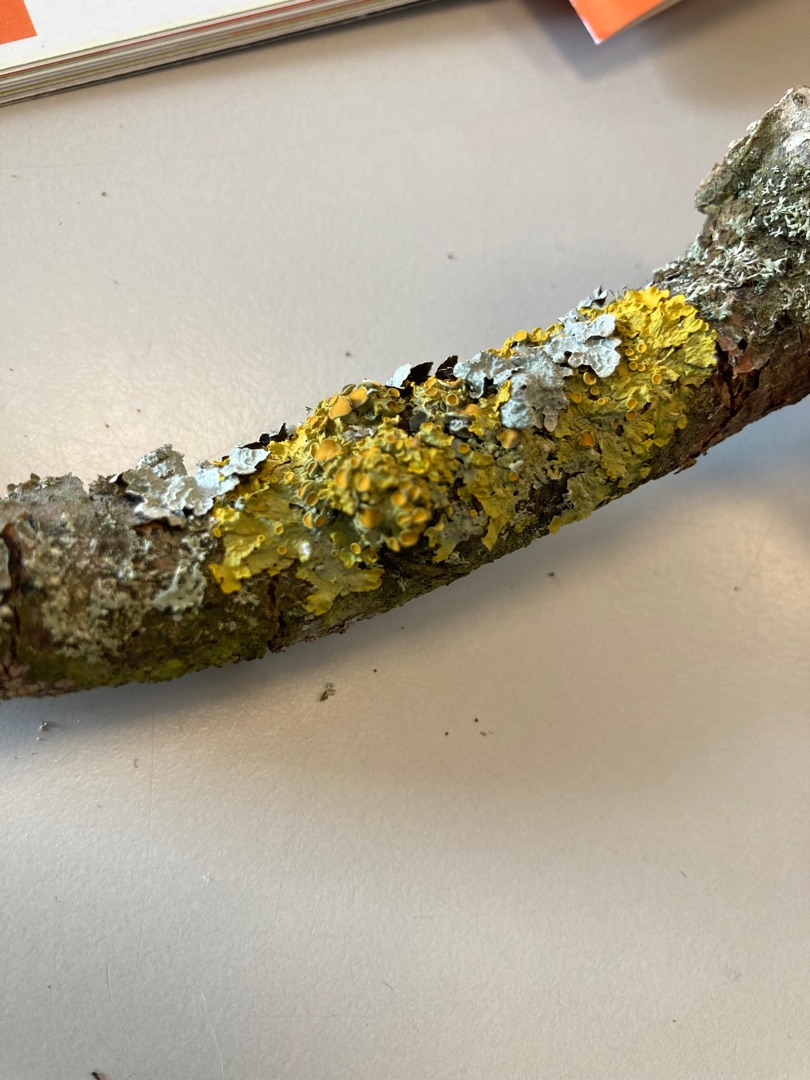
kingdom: Fungi
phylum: Ascomycota
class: Lecanoromycetes
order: Teloschistales
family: Teloschistaceae
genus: Xanthoria
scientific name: Xanthoria parietina
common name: Almindelig væggelav
